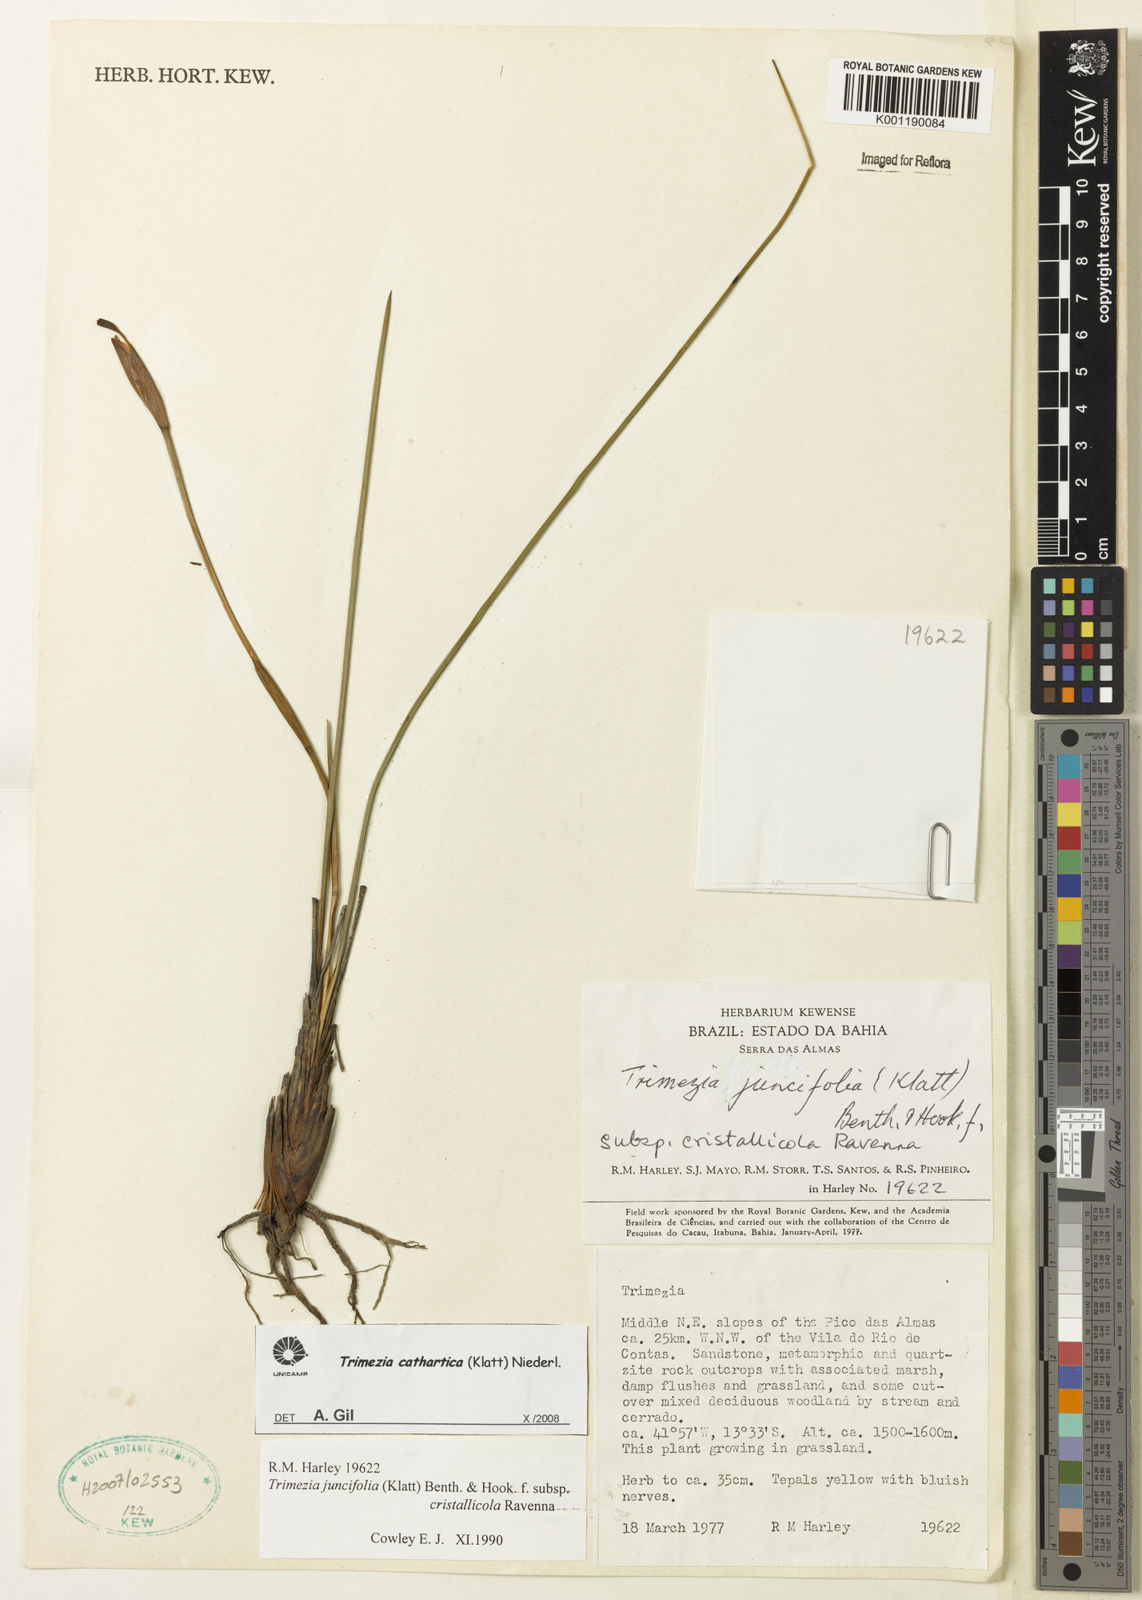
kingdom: Plantae
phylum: Tracheophyta
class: Liliopsida
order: Asparagales
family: Iridaceae
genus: Trimezia
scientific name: Trimezia cathartica
